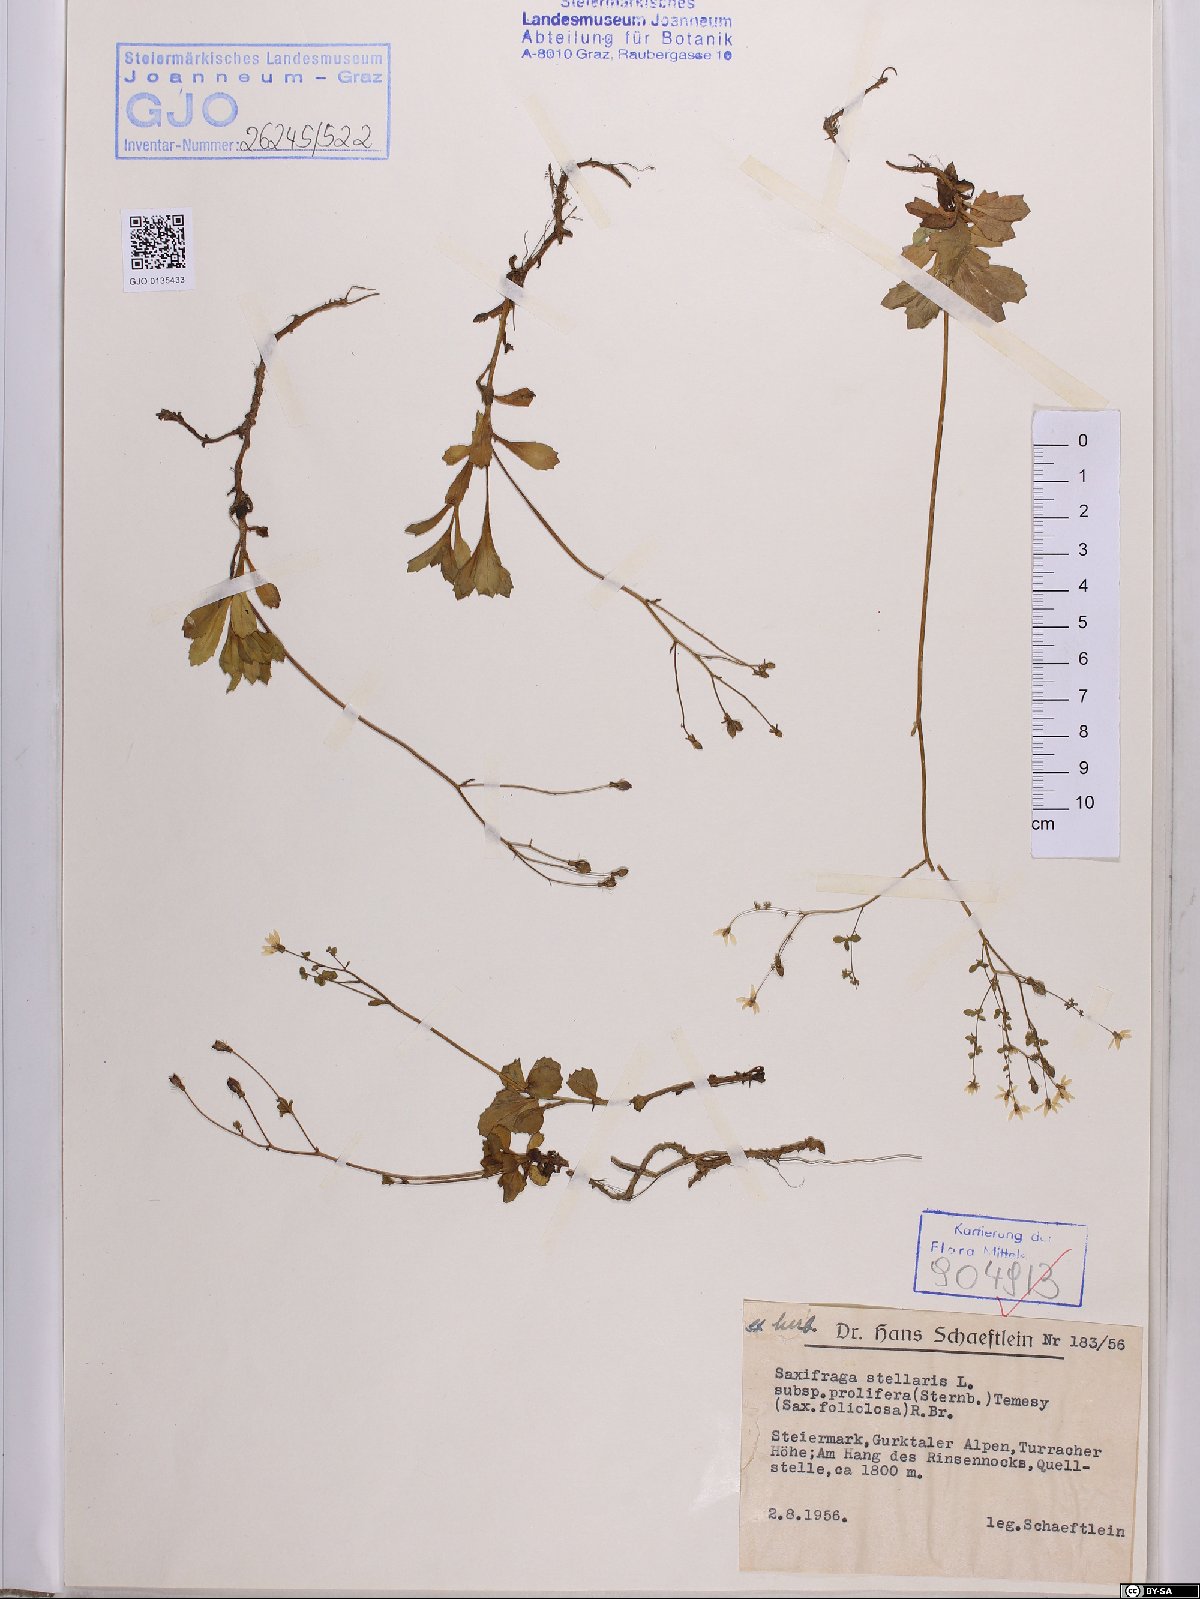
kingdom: Plantae
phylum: Tracheophyta
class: Magnoliopsida
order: Saxifragales
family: Saxifragaceae
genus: Micranthes
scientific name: Micranthes stellaris
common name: Starry saxifrage
